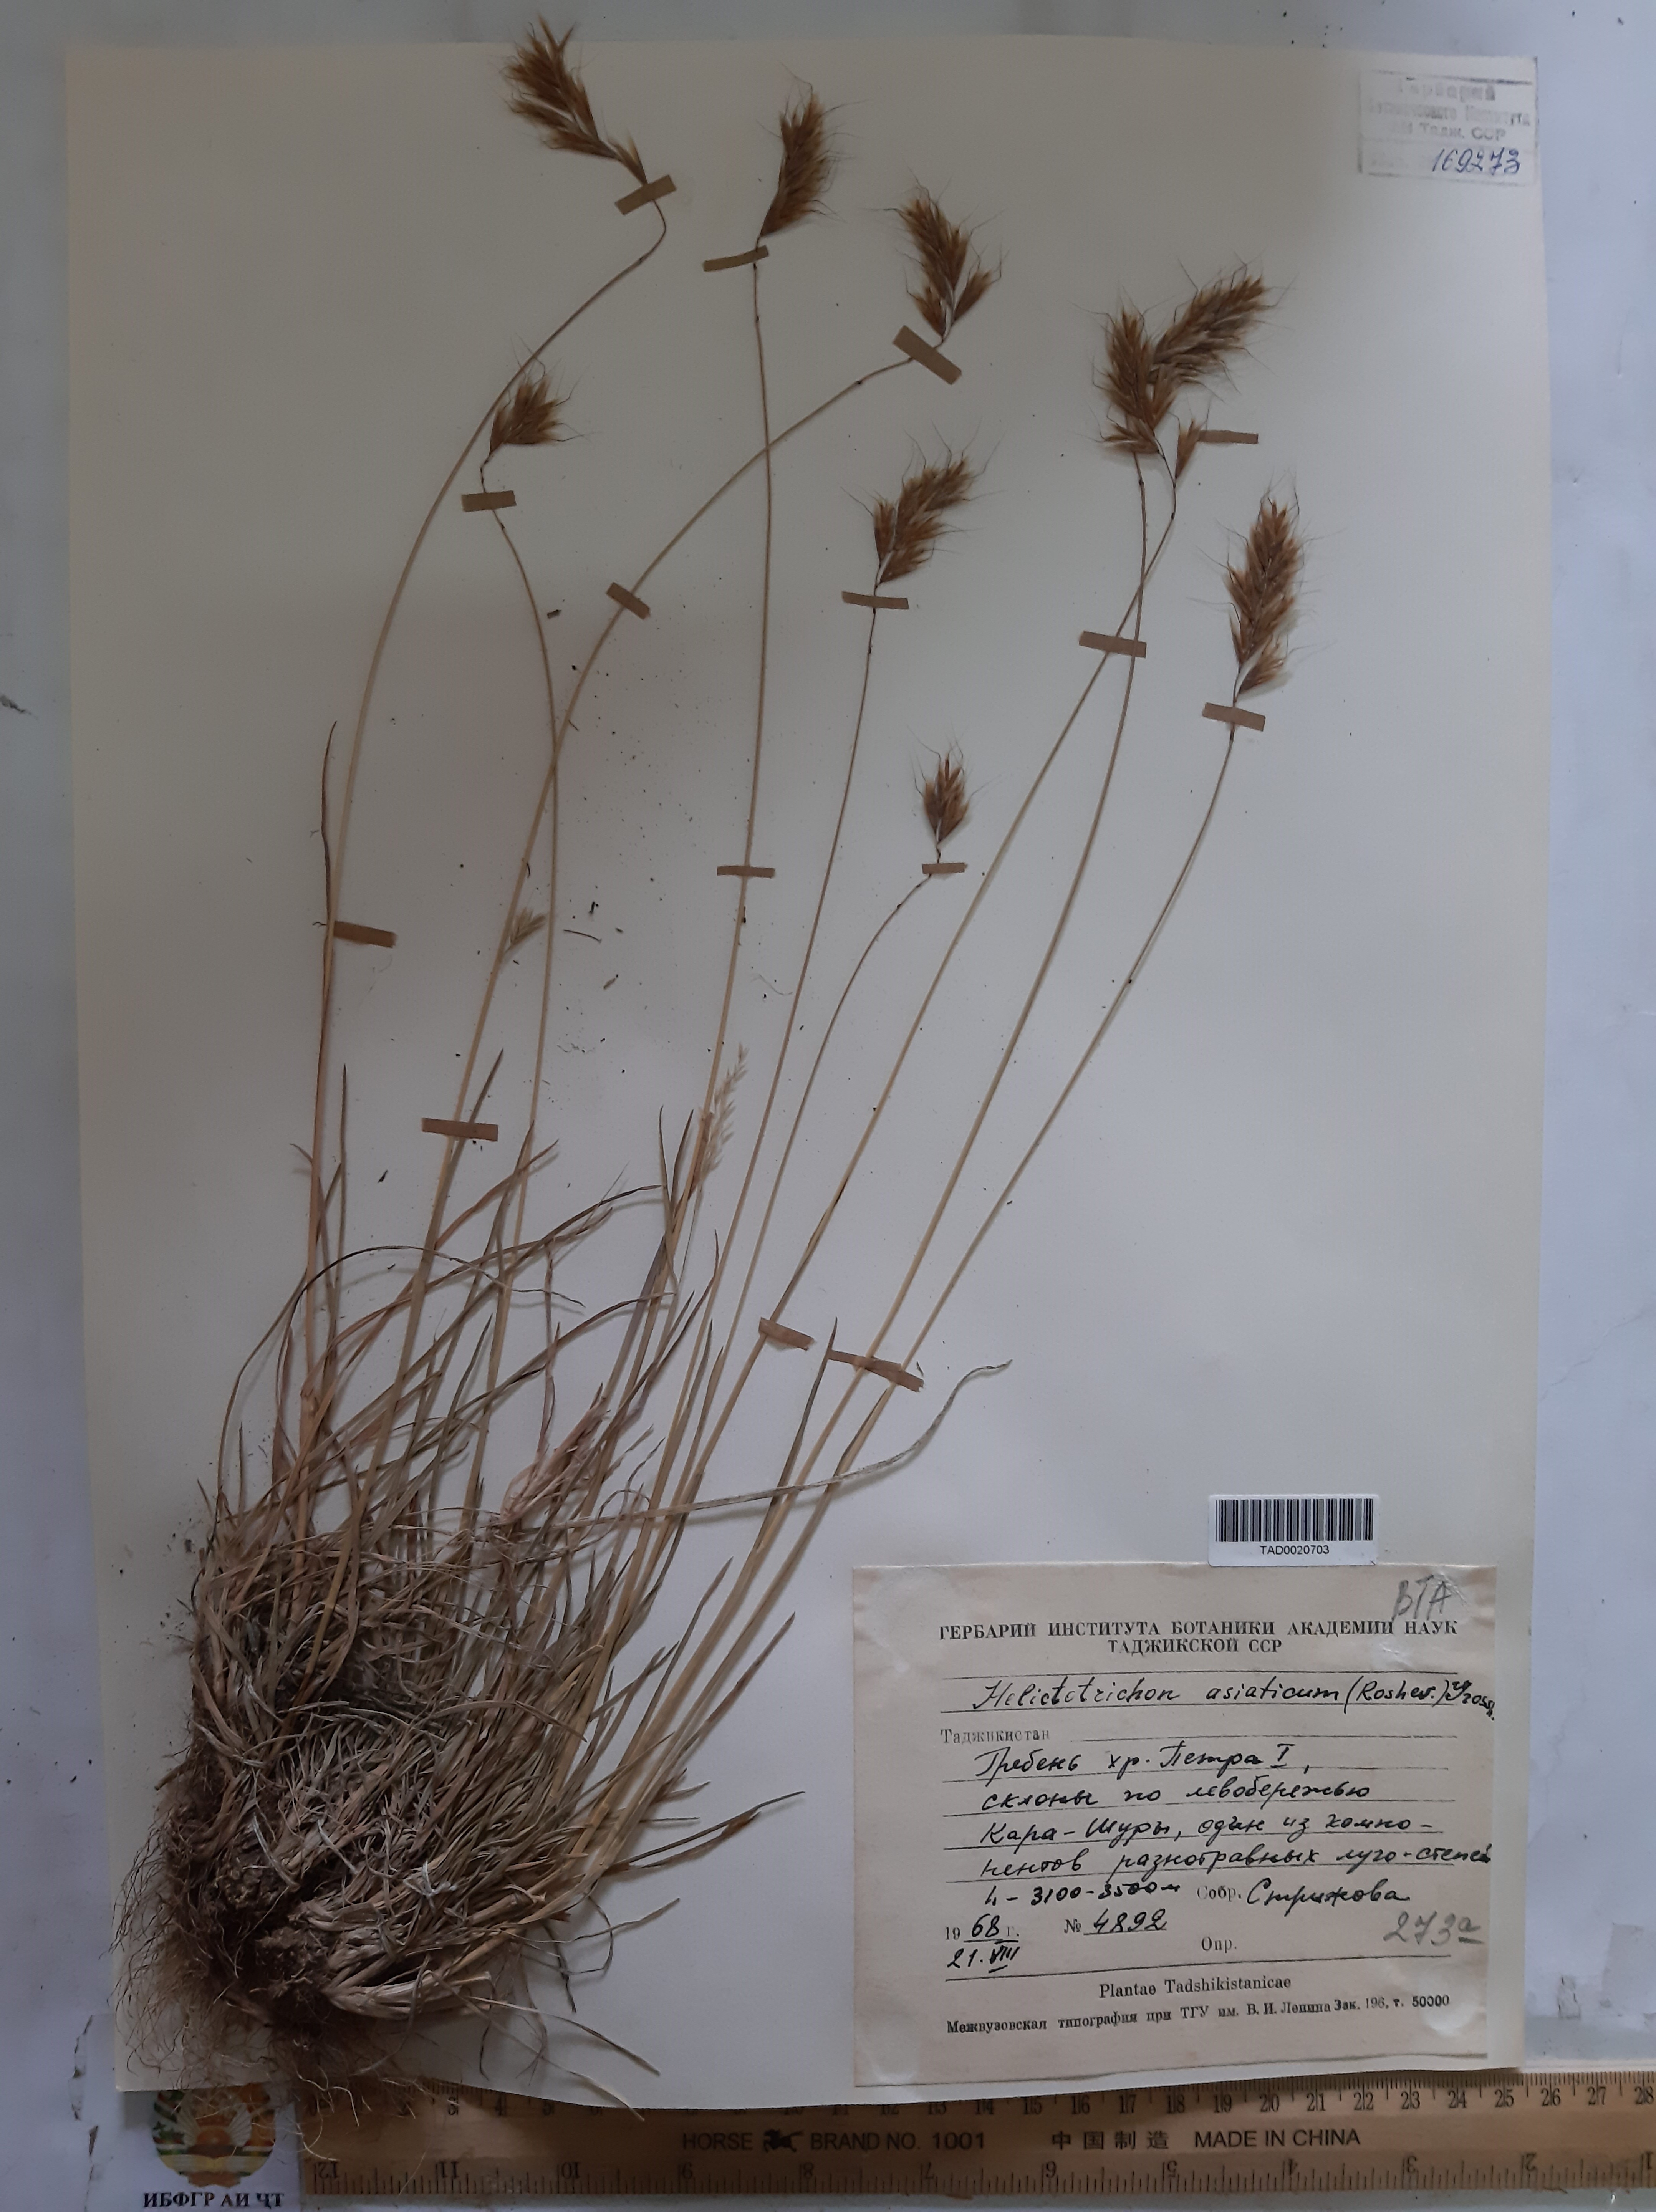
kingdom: Plantae
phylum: Tracheophyta
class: Liliopsida
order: Poales
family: Poaceae
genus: Helictochloa
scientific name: Helictochloa hookeri
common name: Hooker's alpine oatgrass
